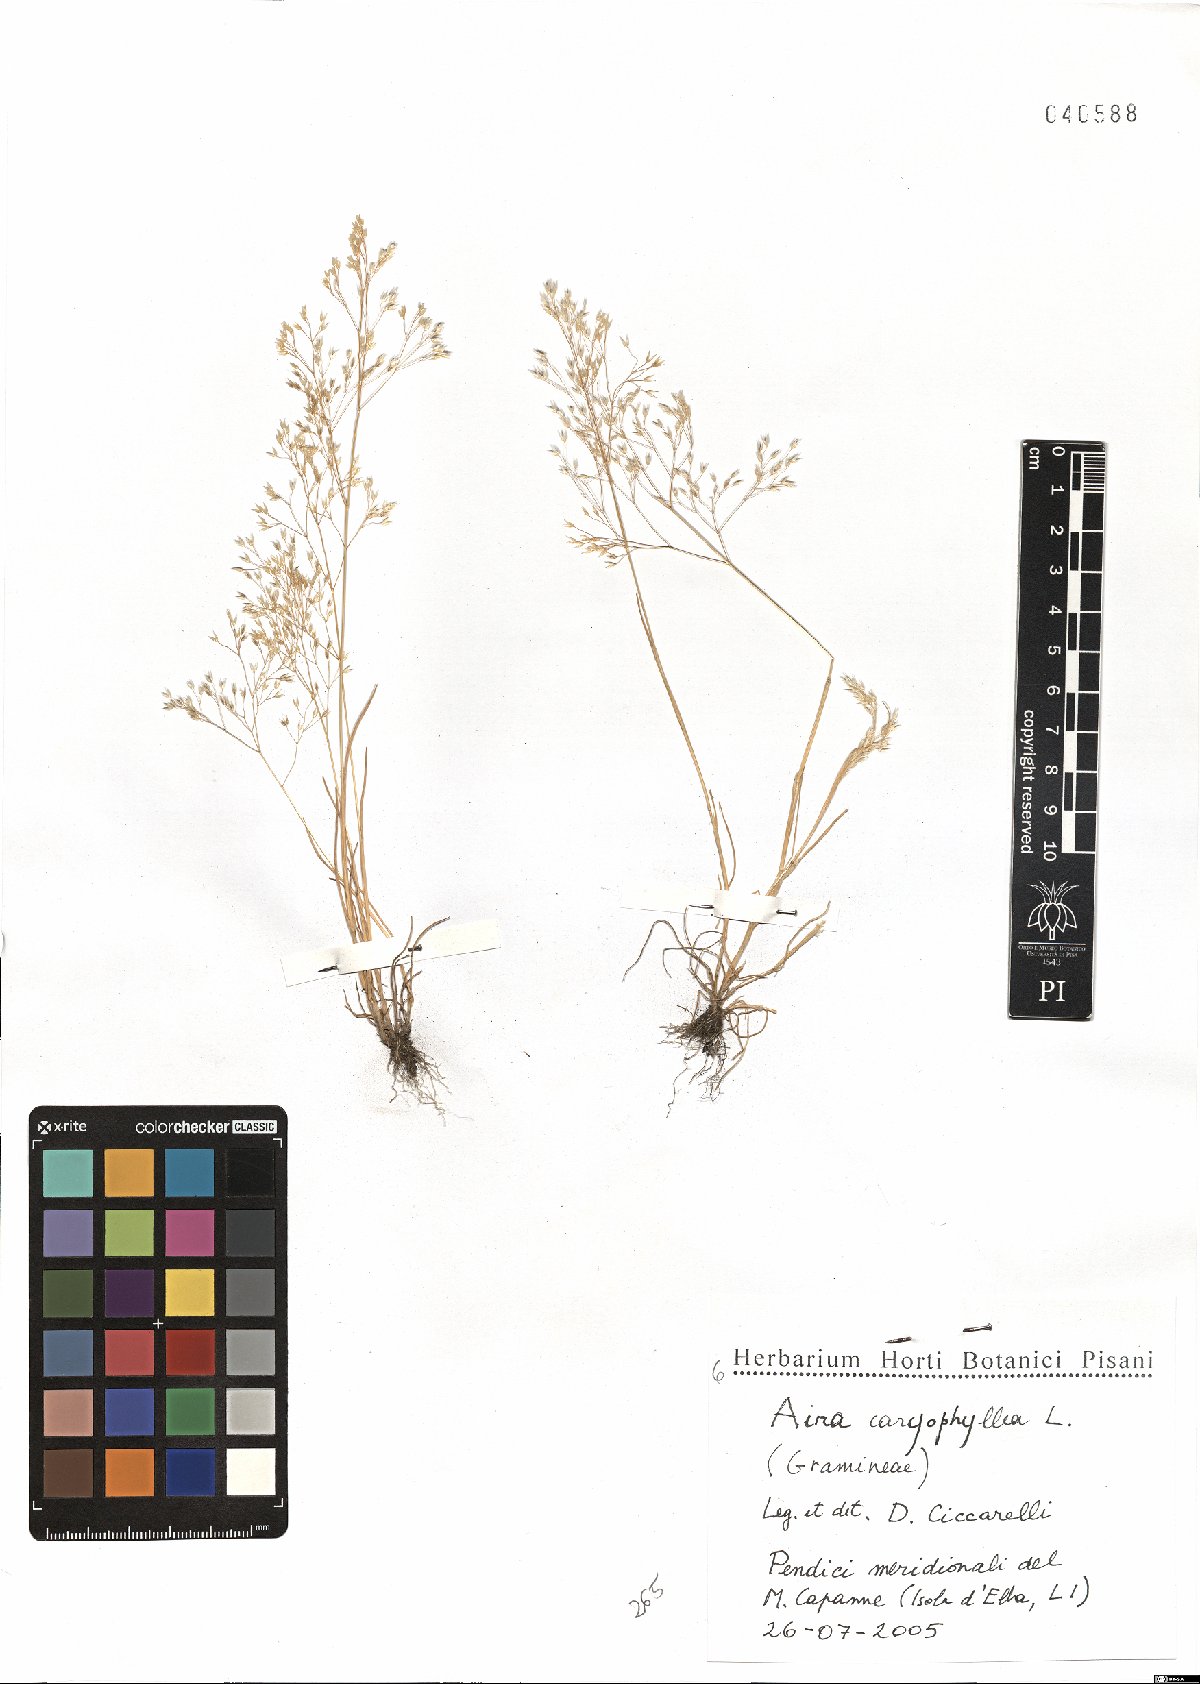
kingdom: Plantae
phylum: Tracheophyta
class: Liliopsida
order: Poales
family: Poaceae
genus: Aira
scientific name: Aira caryophyllea
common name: Silver hairgrass
